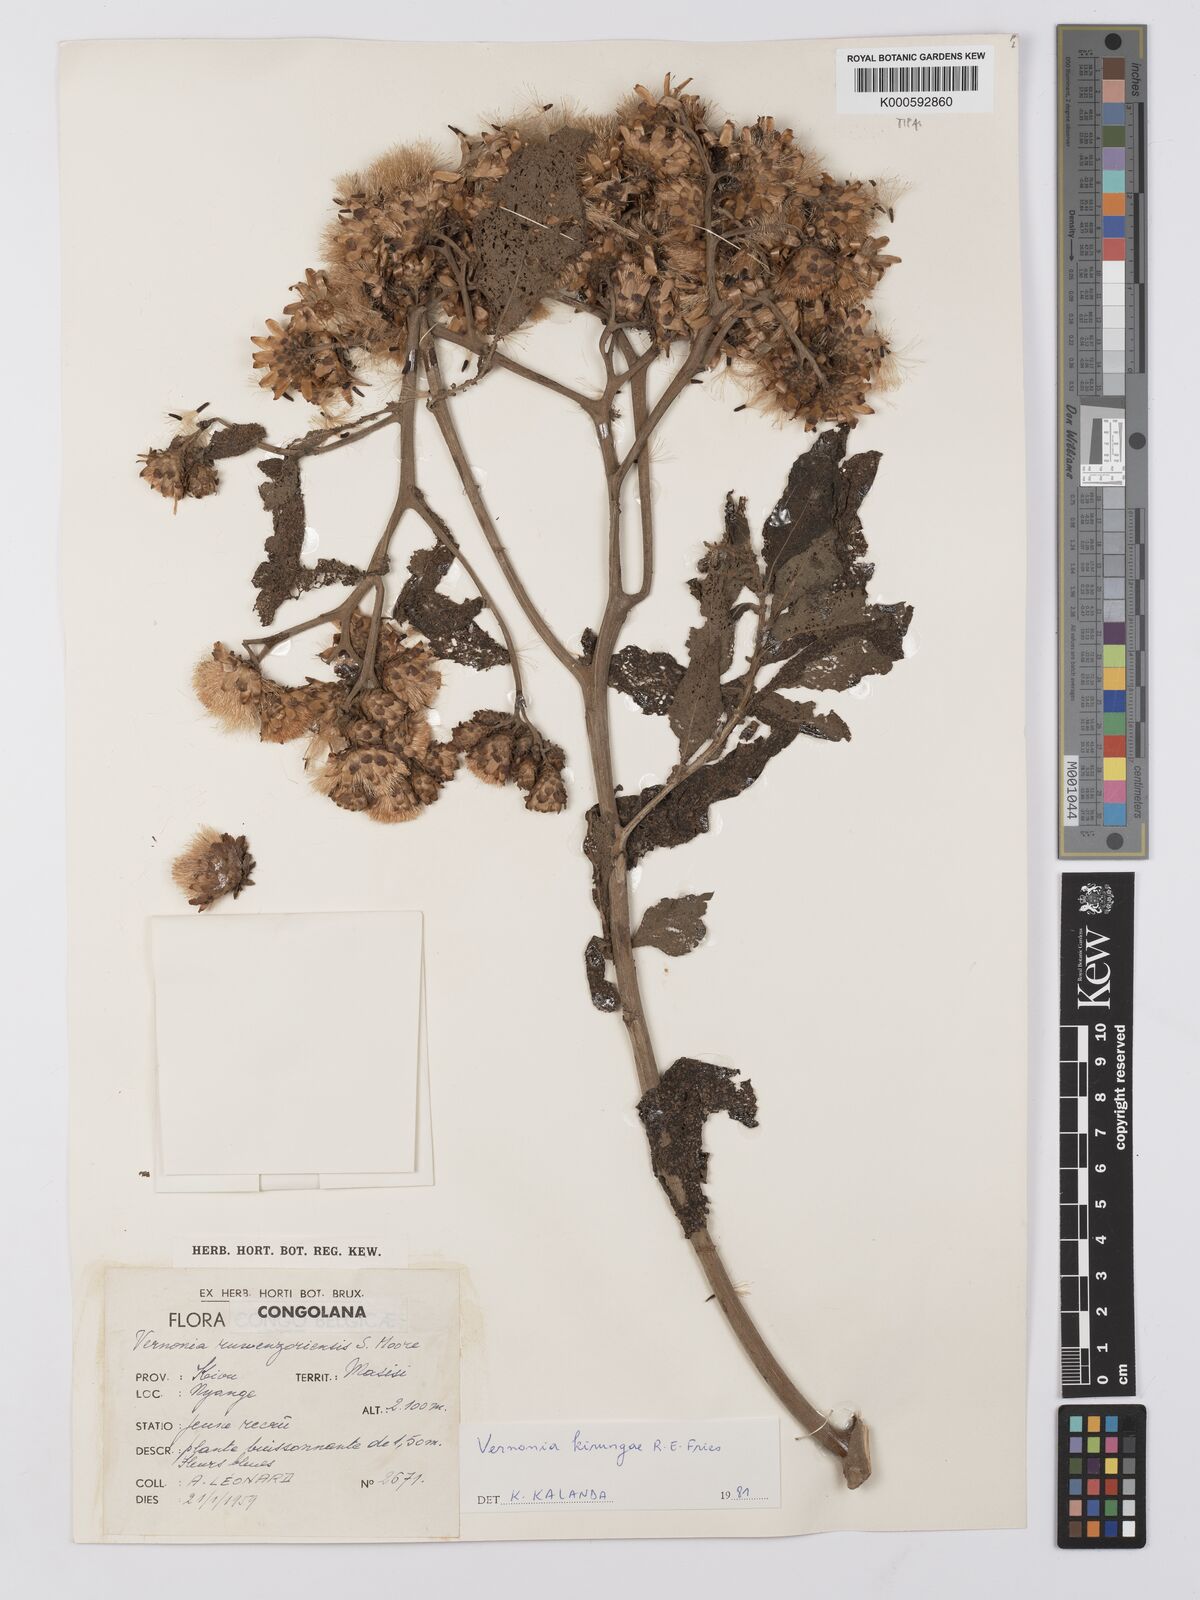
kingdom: Plantae
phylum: Tracheophyta
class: Magnoliopsida
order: Asterales
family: Asteraceae
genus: Baccharoides
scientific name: Baccharoides kirungae
